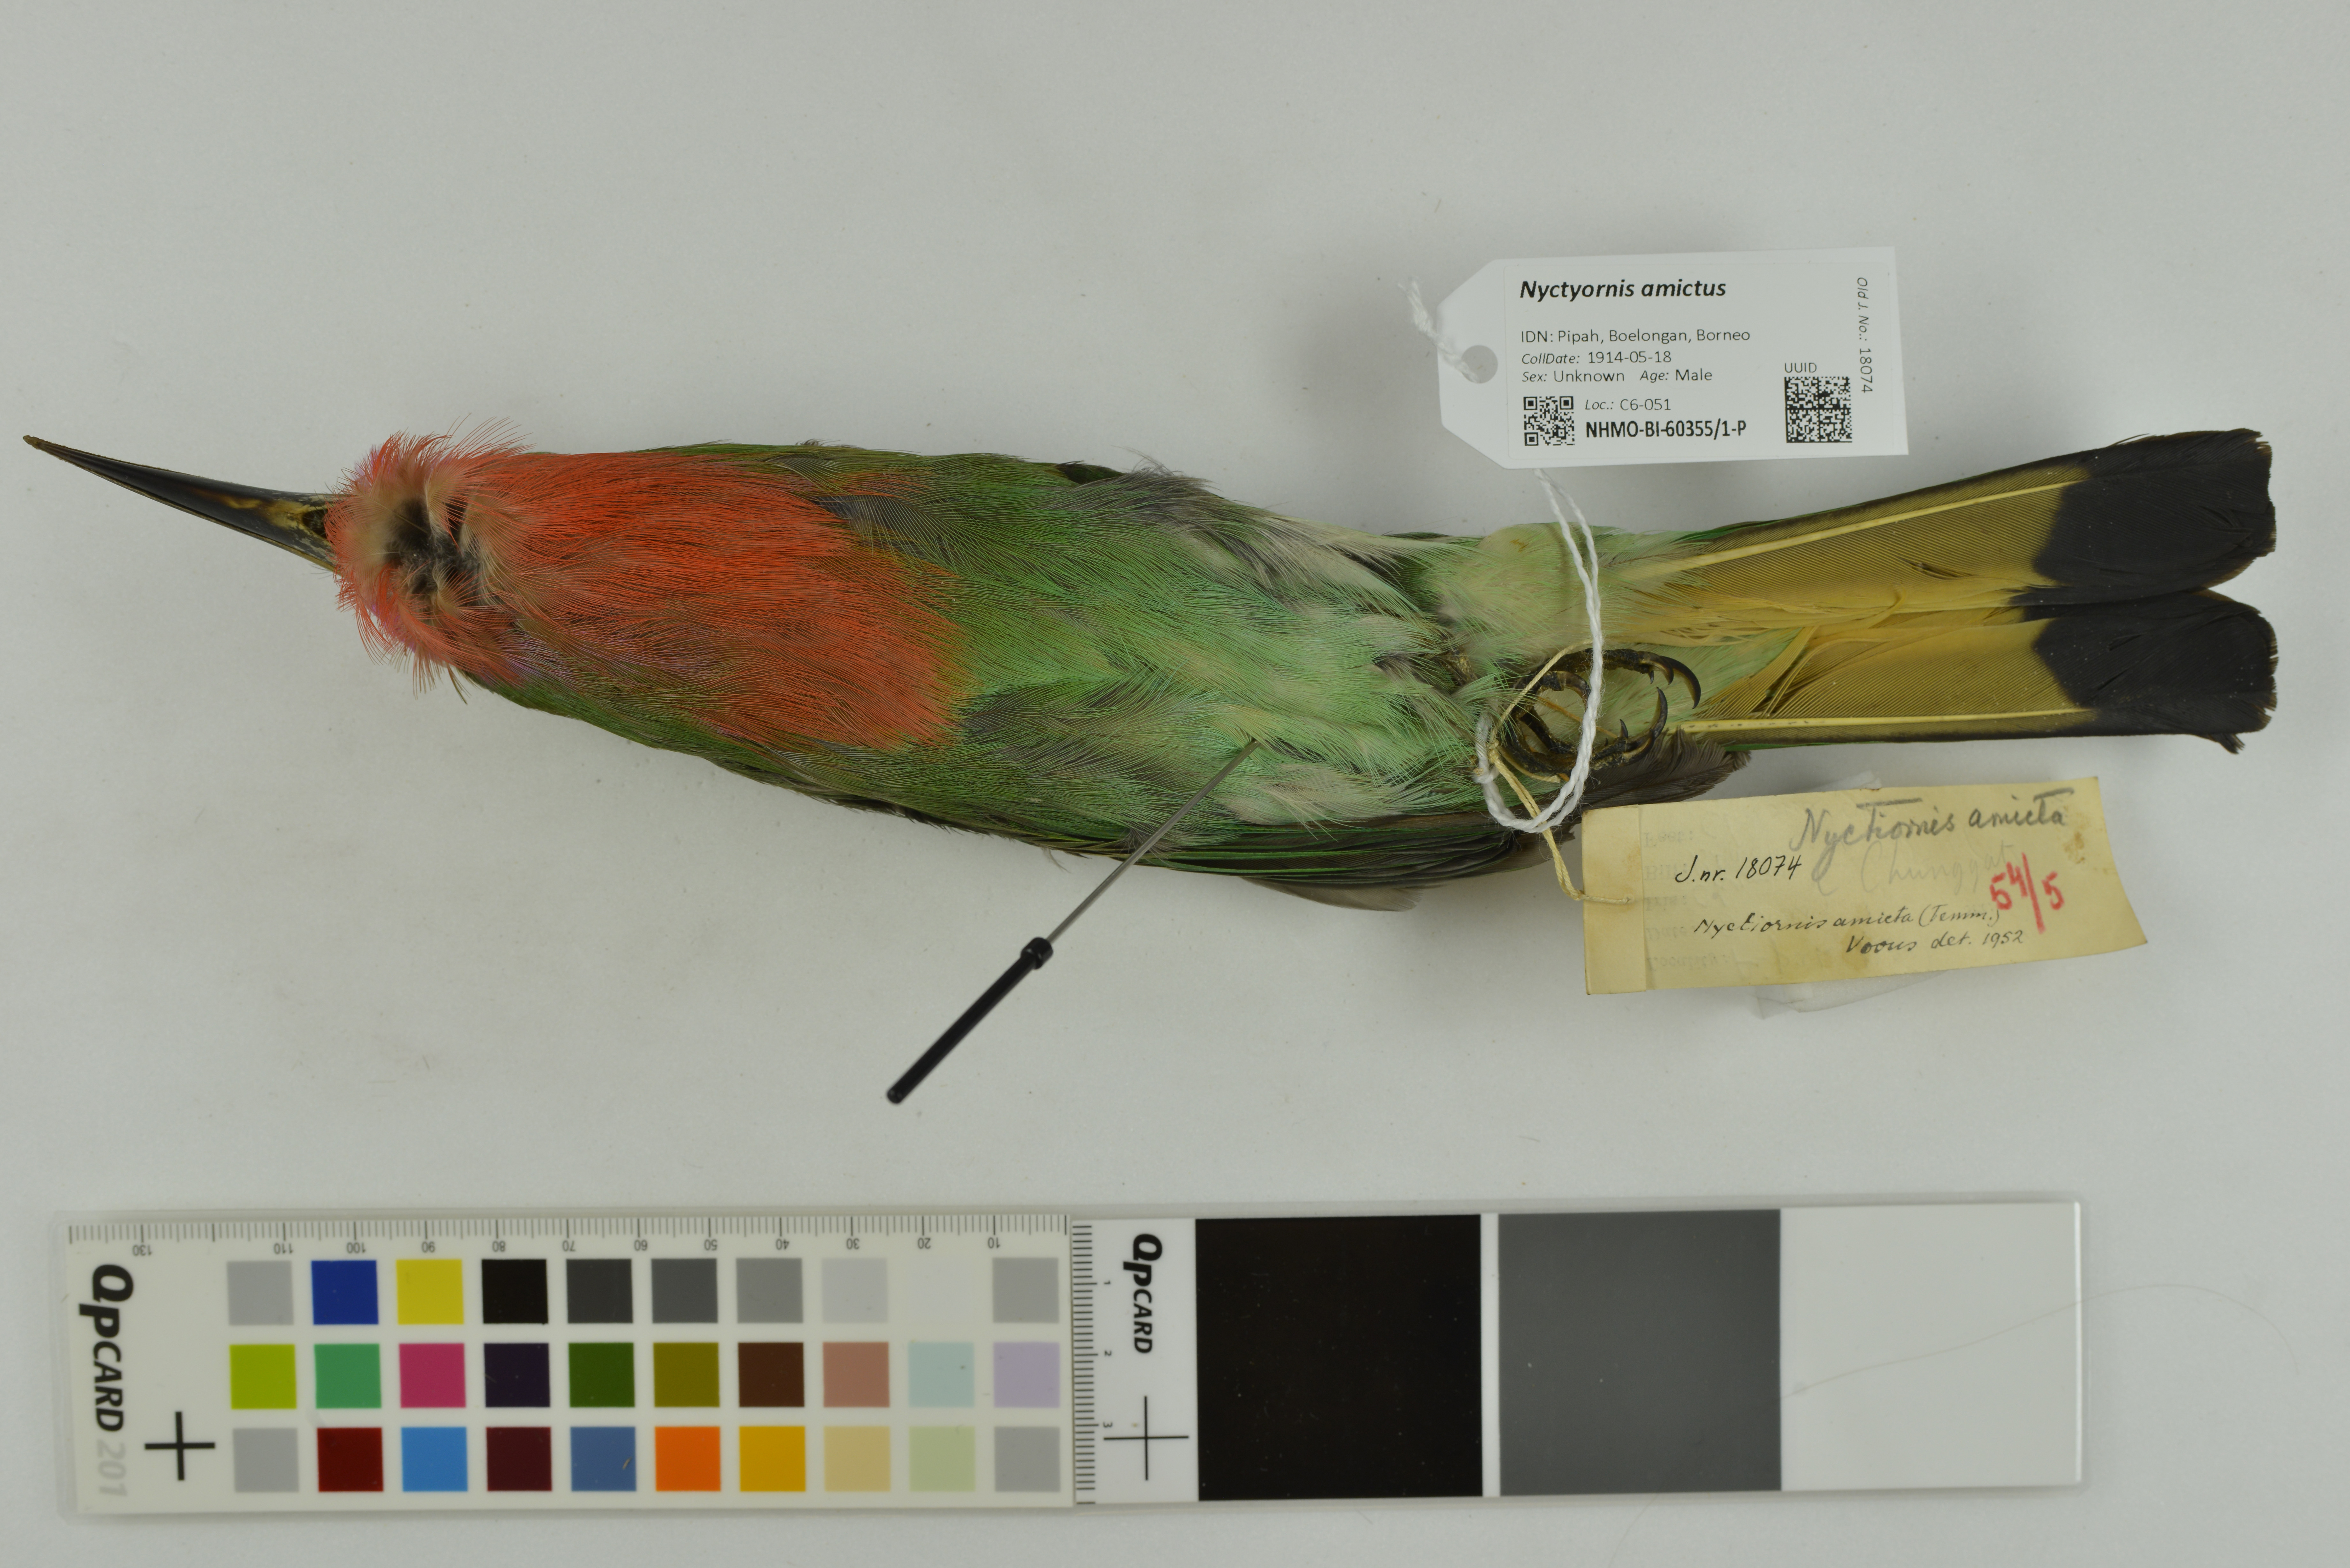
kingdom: Animalia
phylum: Chordata
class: Aves
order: Coraciiformes
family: Meropidae
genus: Nyctyornis
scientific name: Nyctyornis amictus
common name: Red-bearded bee-eater
